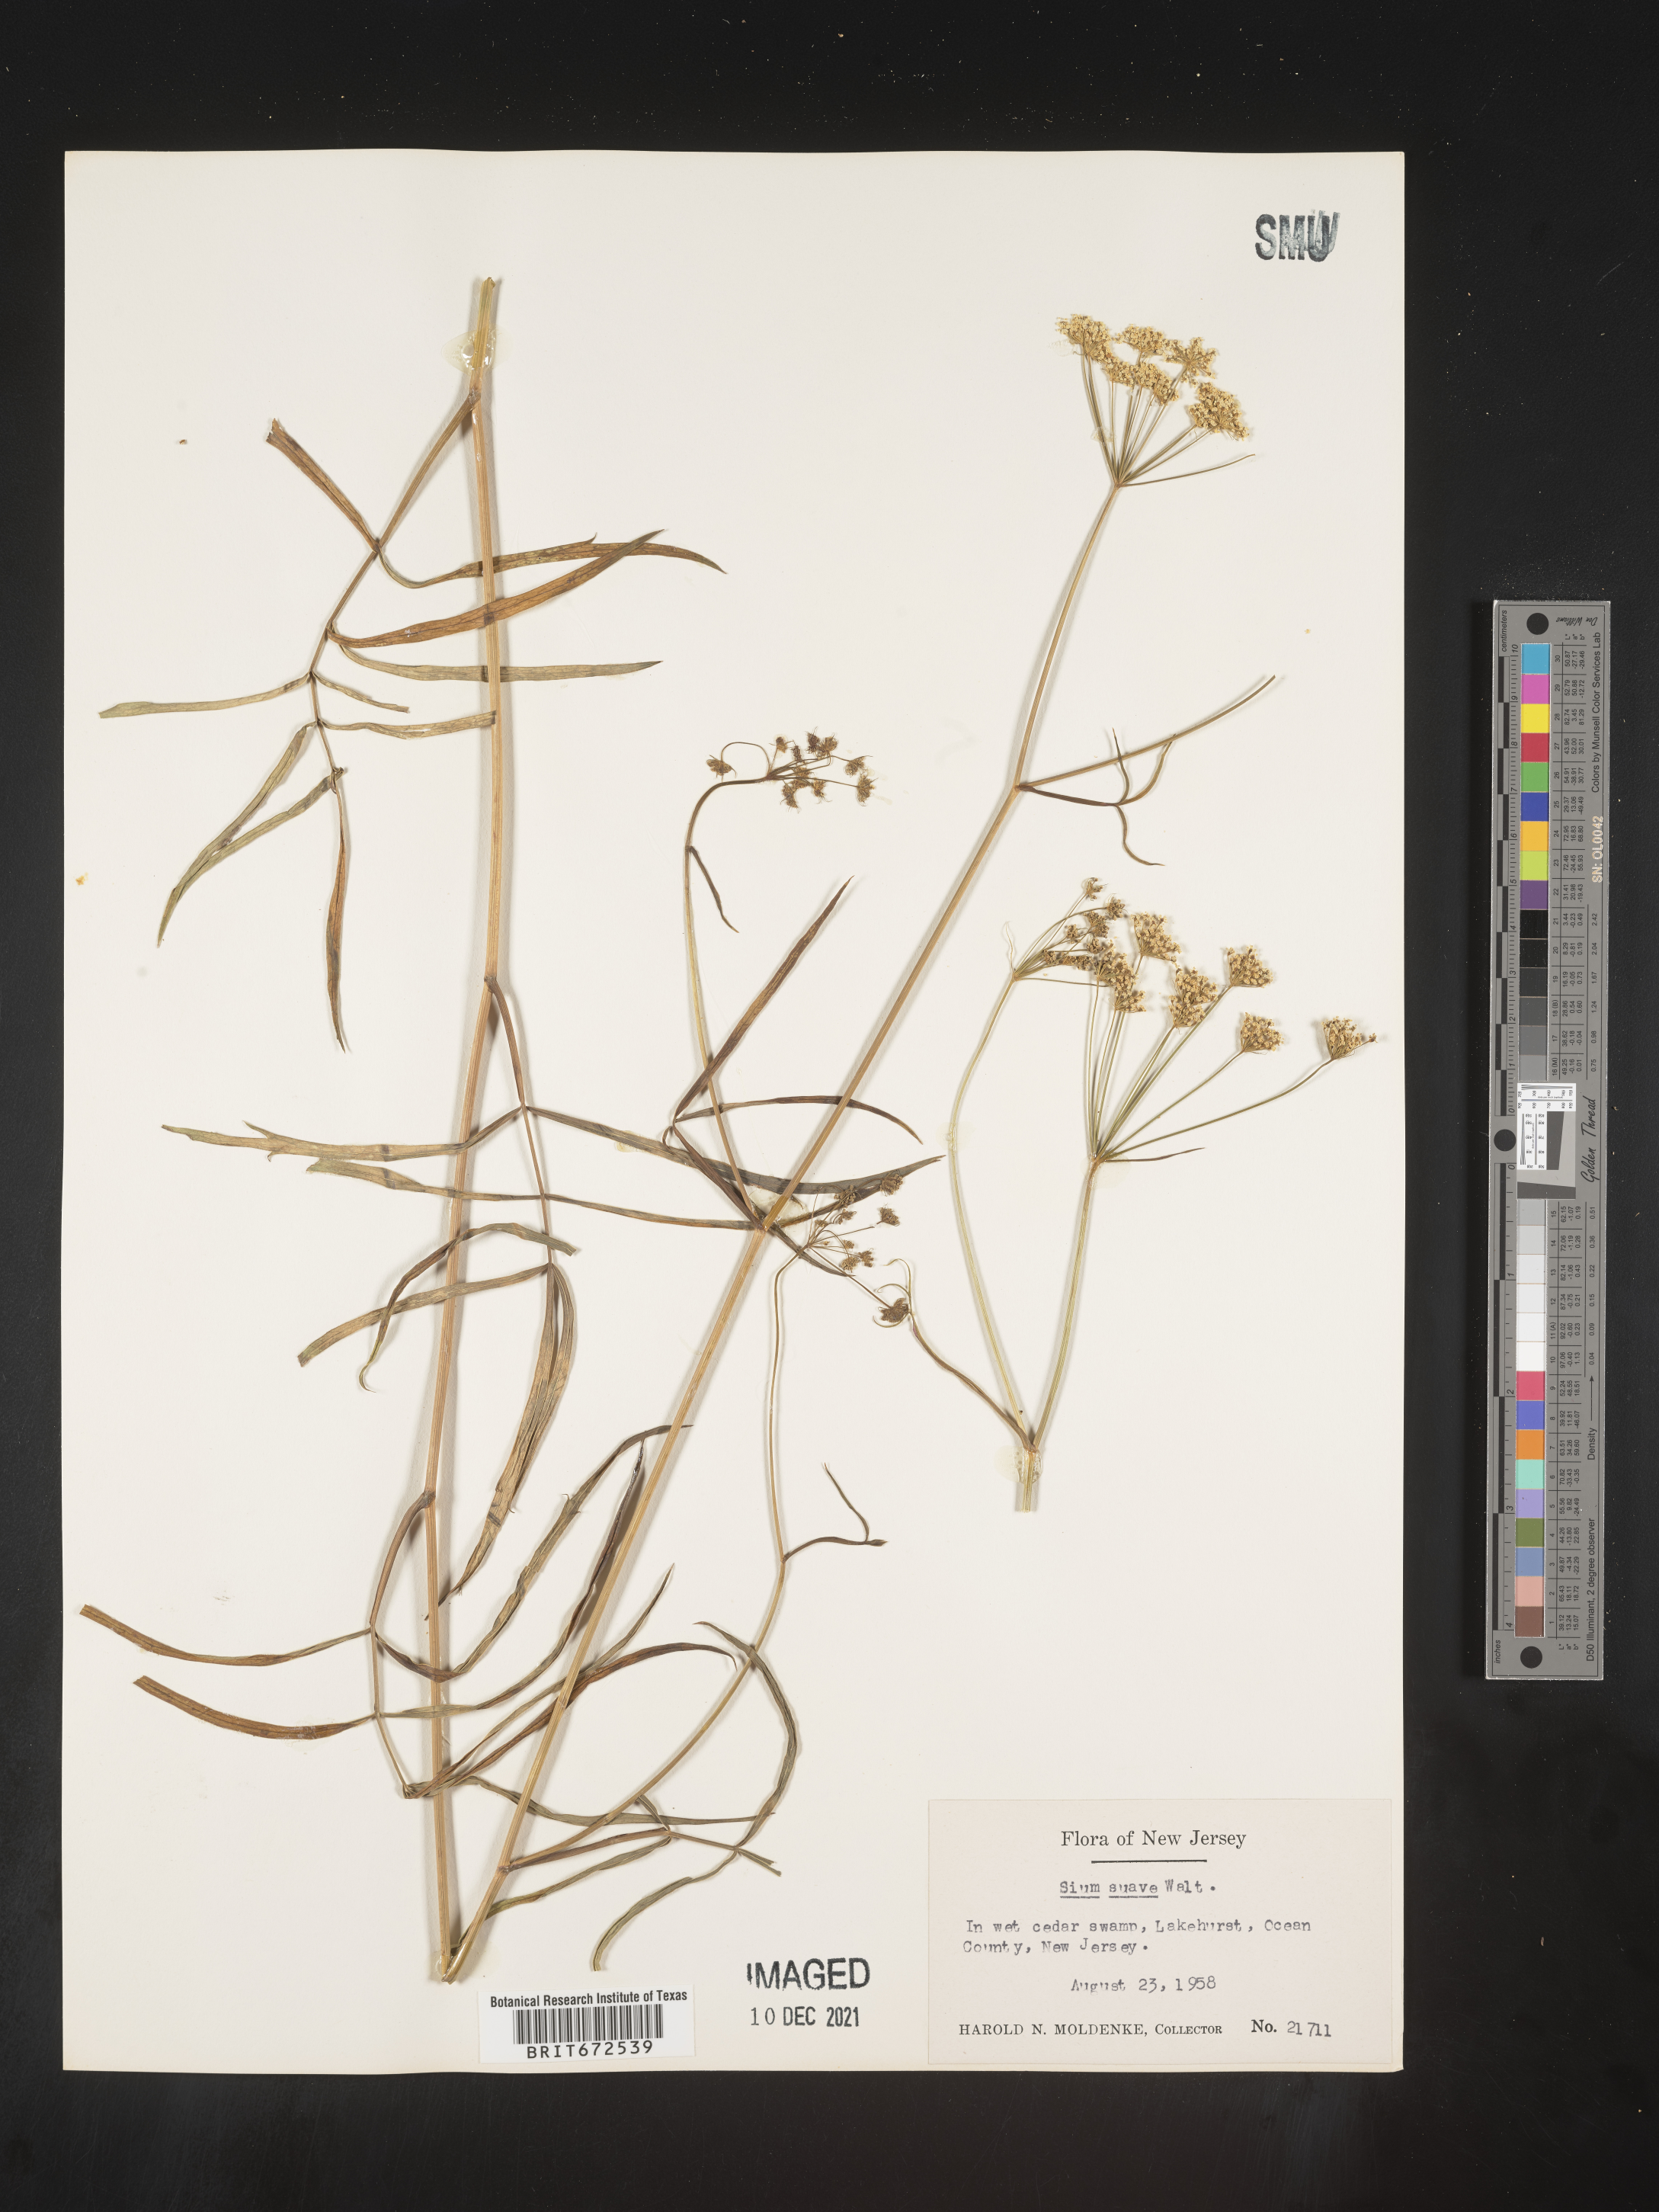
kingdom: Plantae
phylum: Tracheophyta
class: Magnoliopsida
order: Apiales
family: Apiaceae
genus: Sium
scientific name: Sium suave
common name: Hemlock water-parsnip
